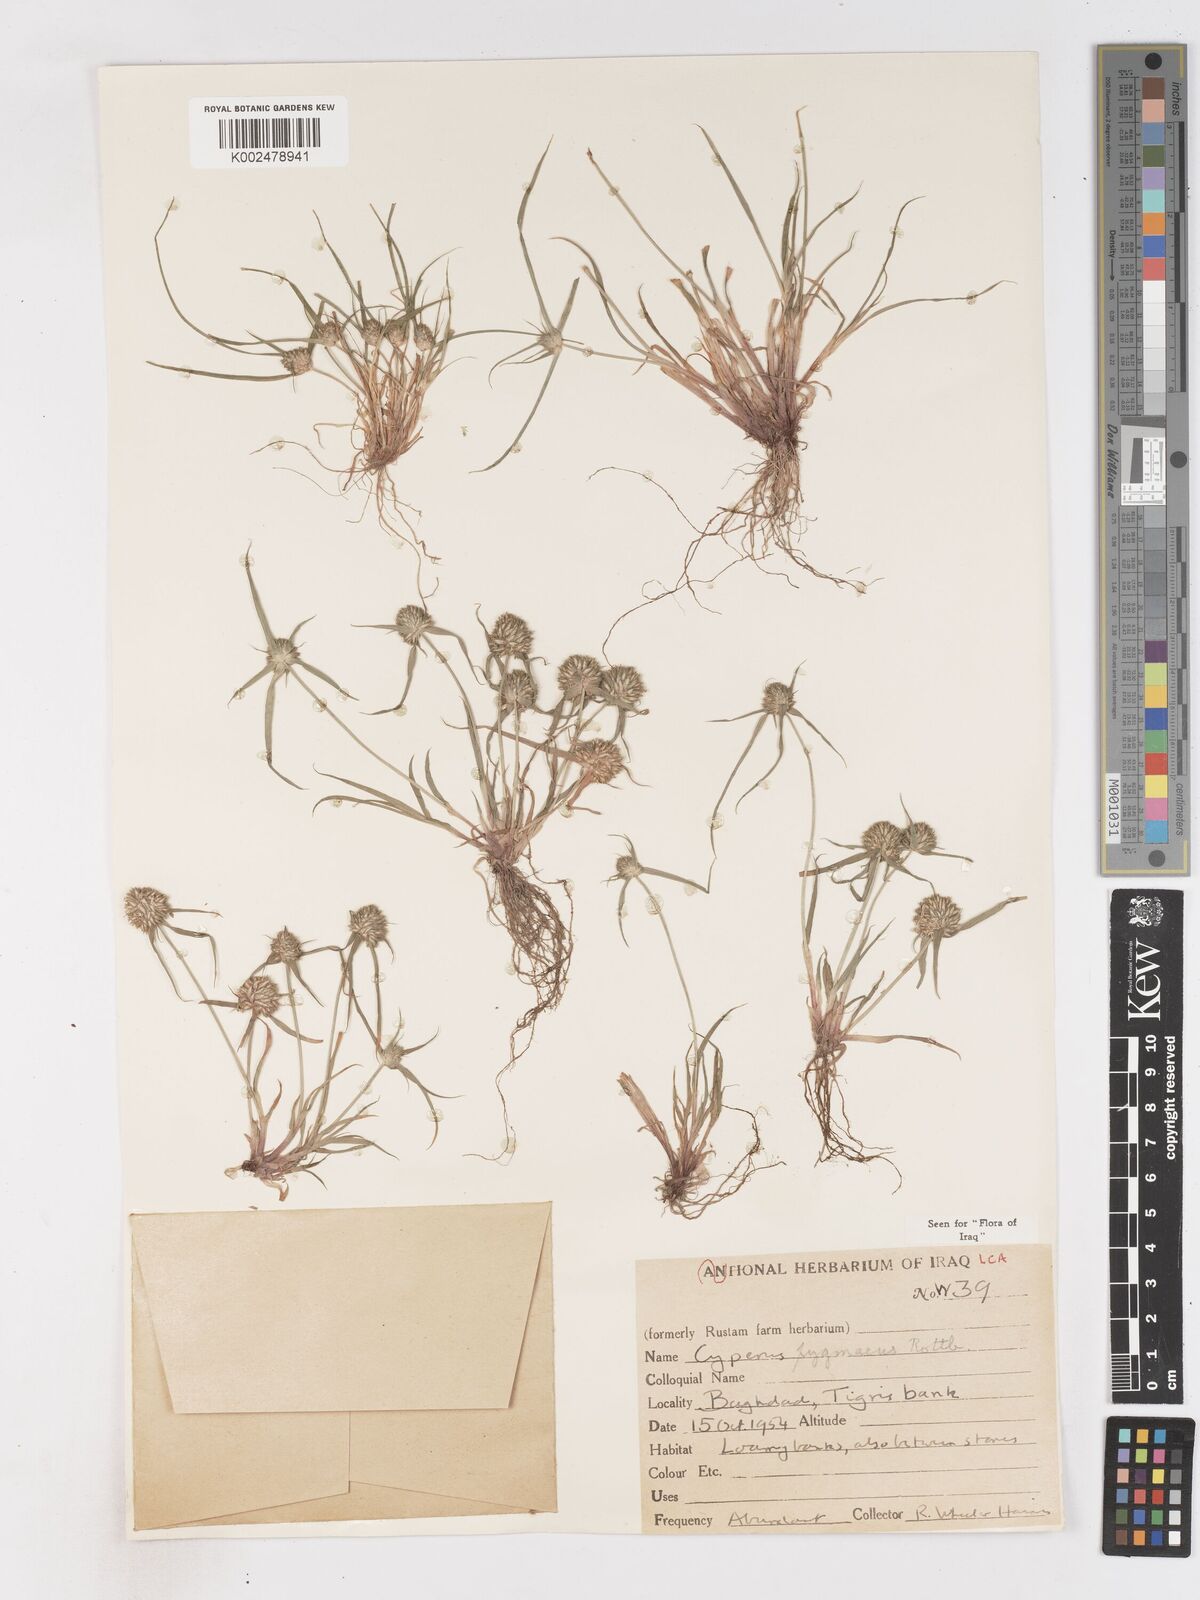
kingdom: Plantae
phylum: Tracheophyta
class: Liliopsida
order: Poales
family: Cyperaceae
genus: Cyperus
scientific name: Cyperus michelianus
